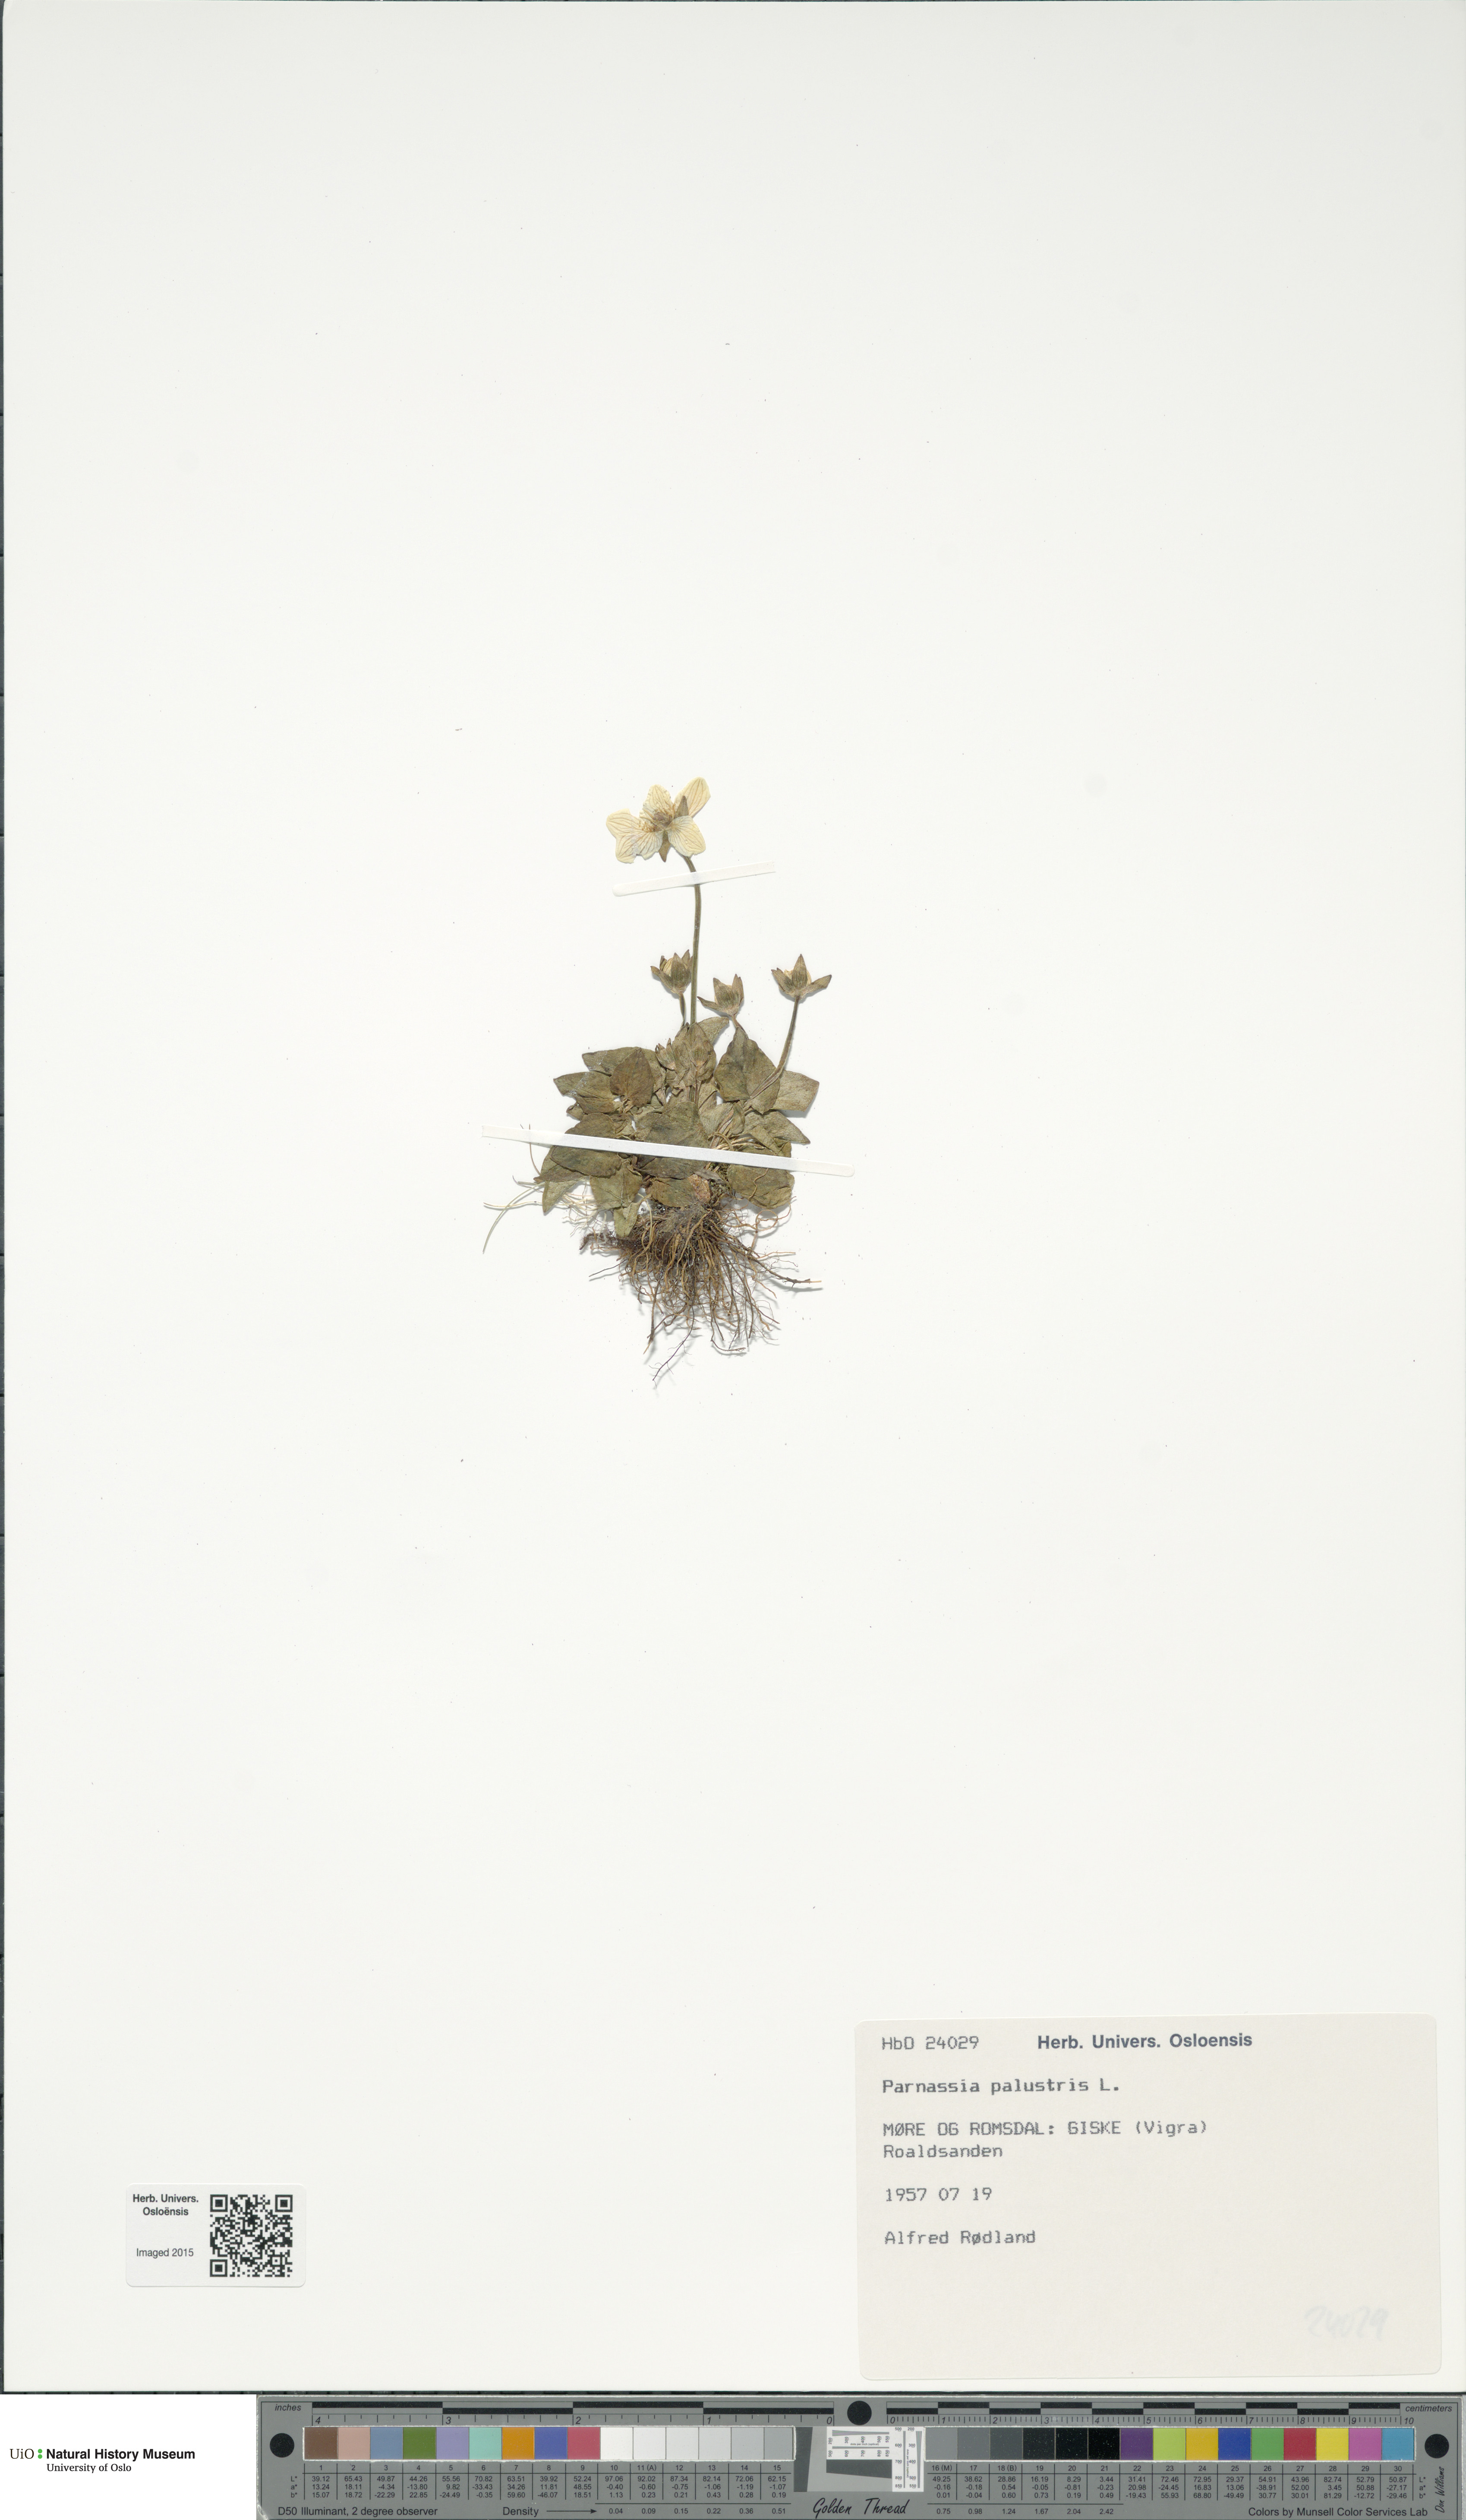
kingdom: Plantae
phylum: Tracheophyta
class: Magnoliopsida
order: Celastrales
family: Parnassiaceae
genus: Parnassia
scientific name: Parnassia palustris
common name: Grass-of-parnassus
